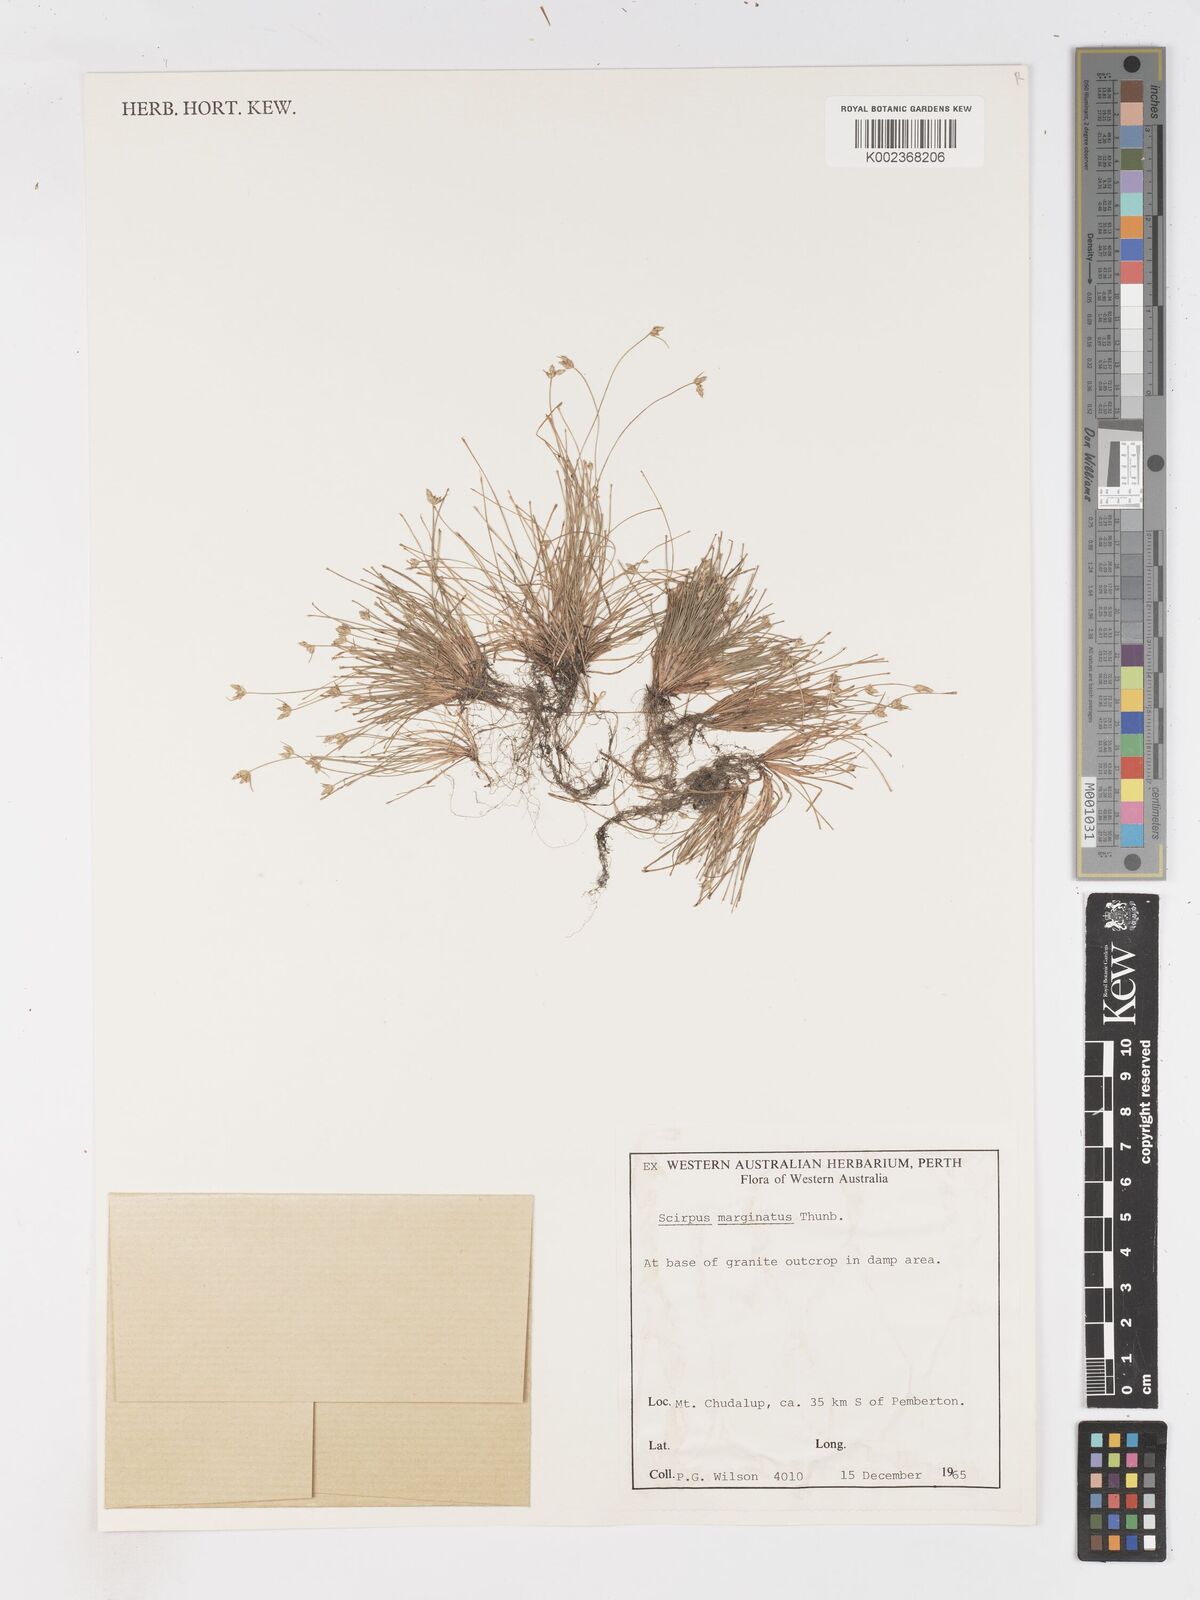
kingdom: Plantae
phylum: Tracheophyta
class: Liliopsida
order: Poales
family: Cyperaceae
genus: Isolepis
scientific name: Isolepis marginata
